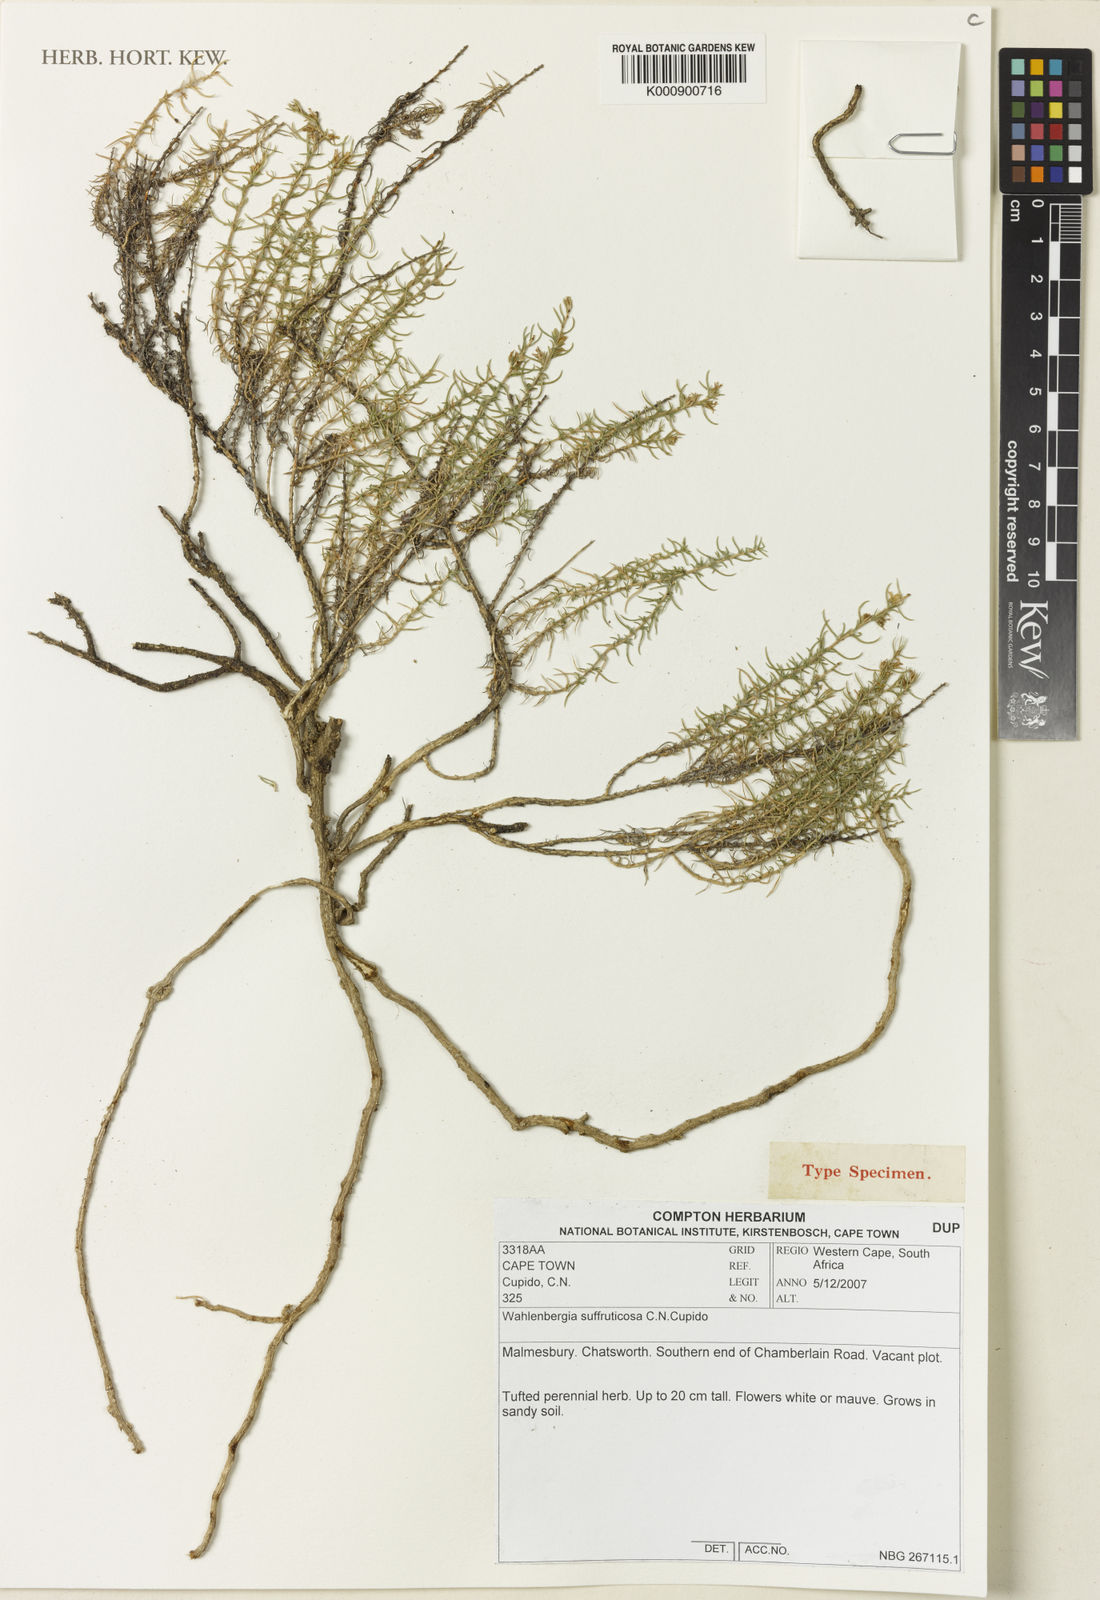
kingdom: Plantae
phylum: Tracheophyta
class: Magnoliopsida
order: Asterales
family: Campanulaceae
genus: Wahlenbergia
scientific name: Wahlenbergia suffruticosa
